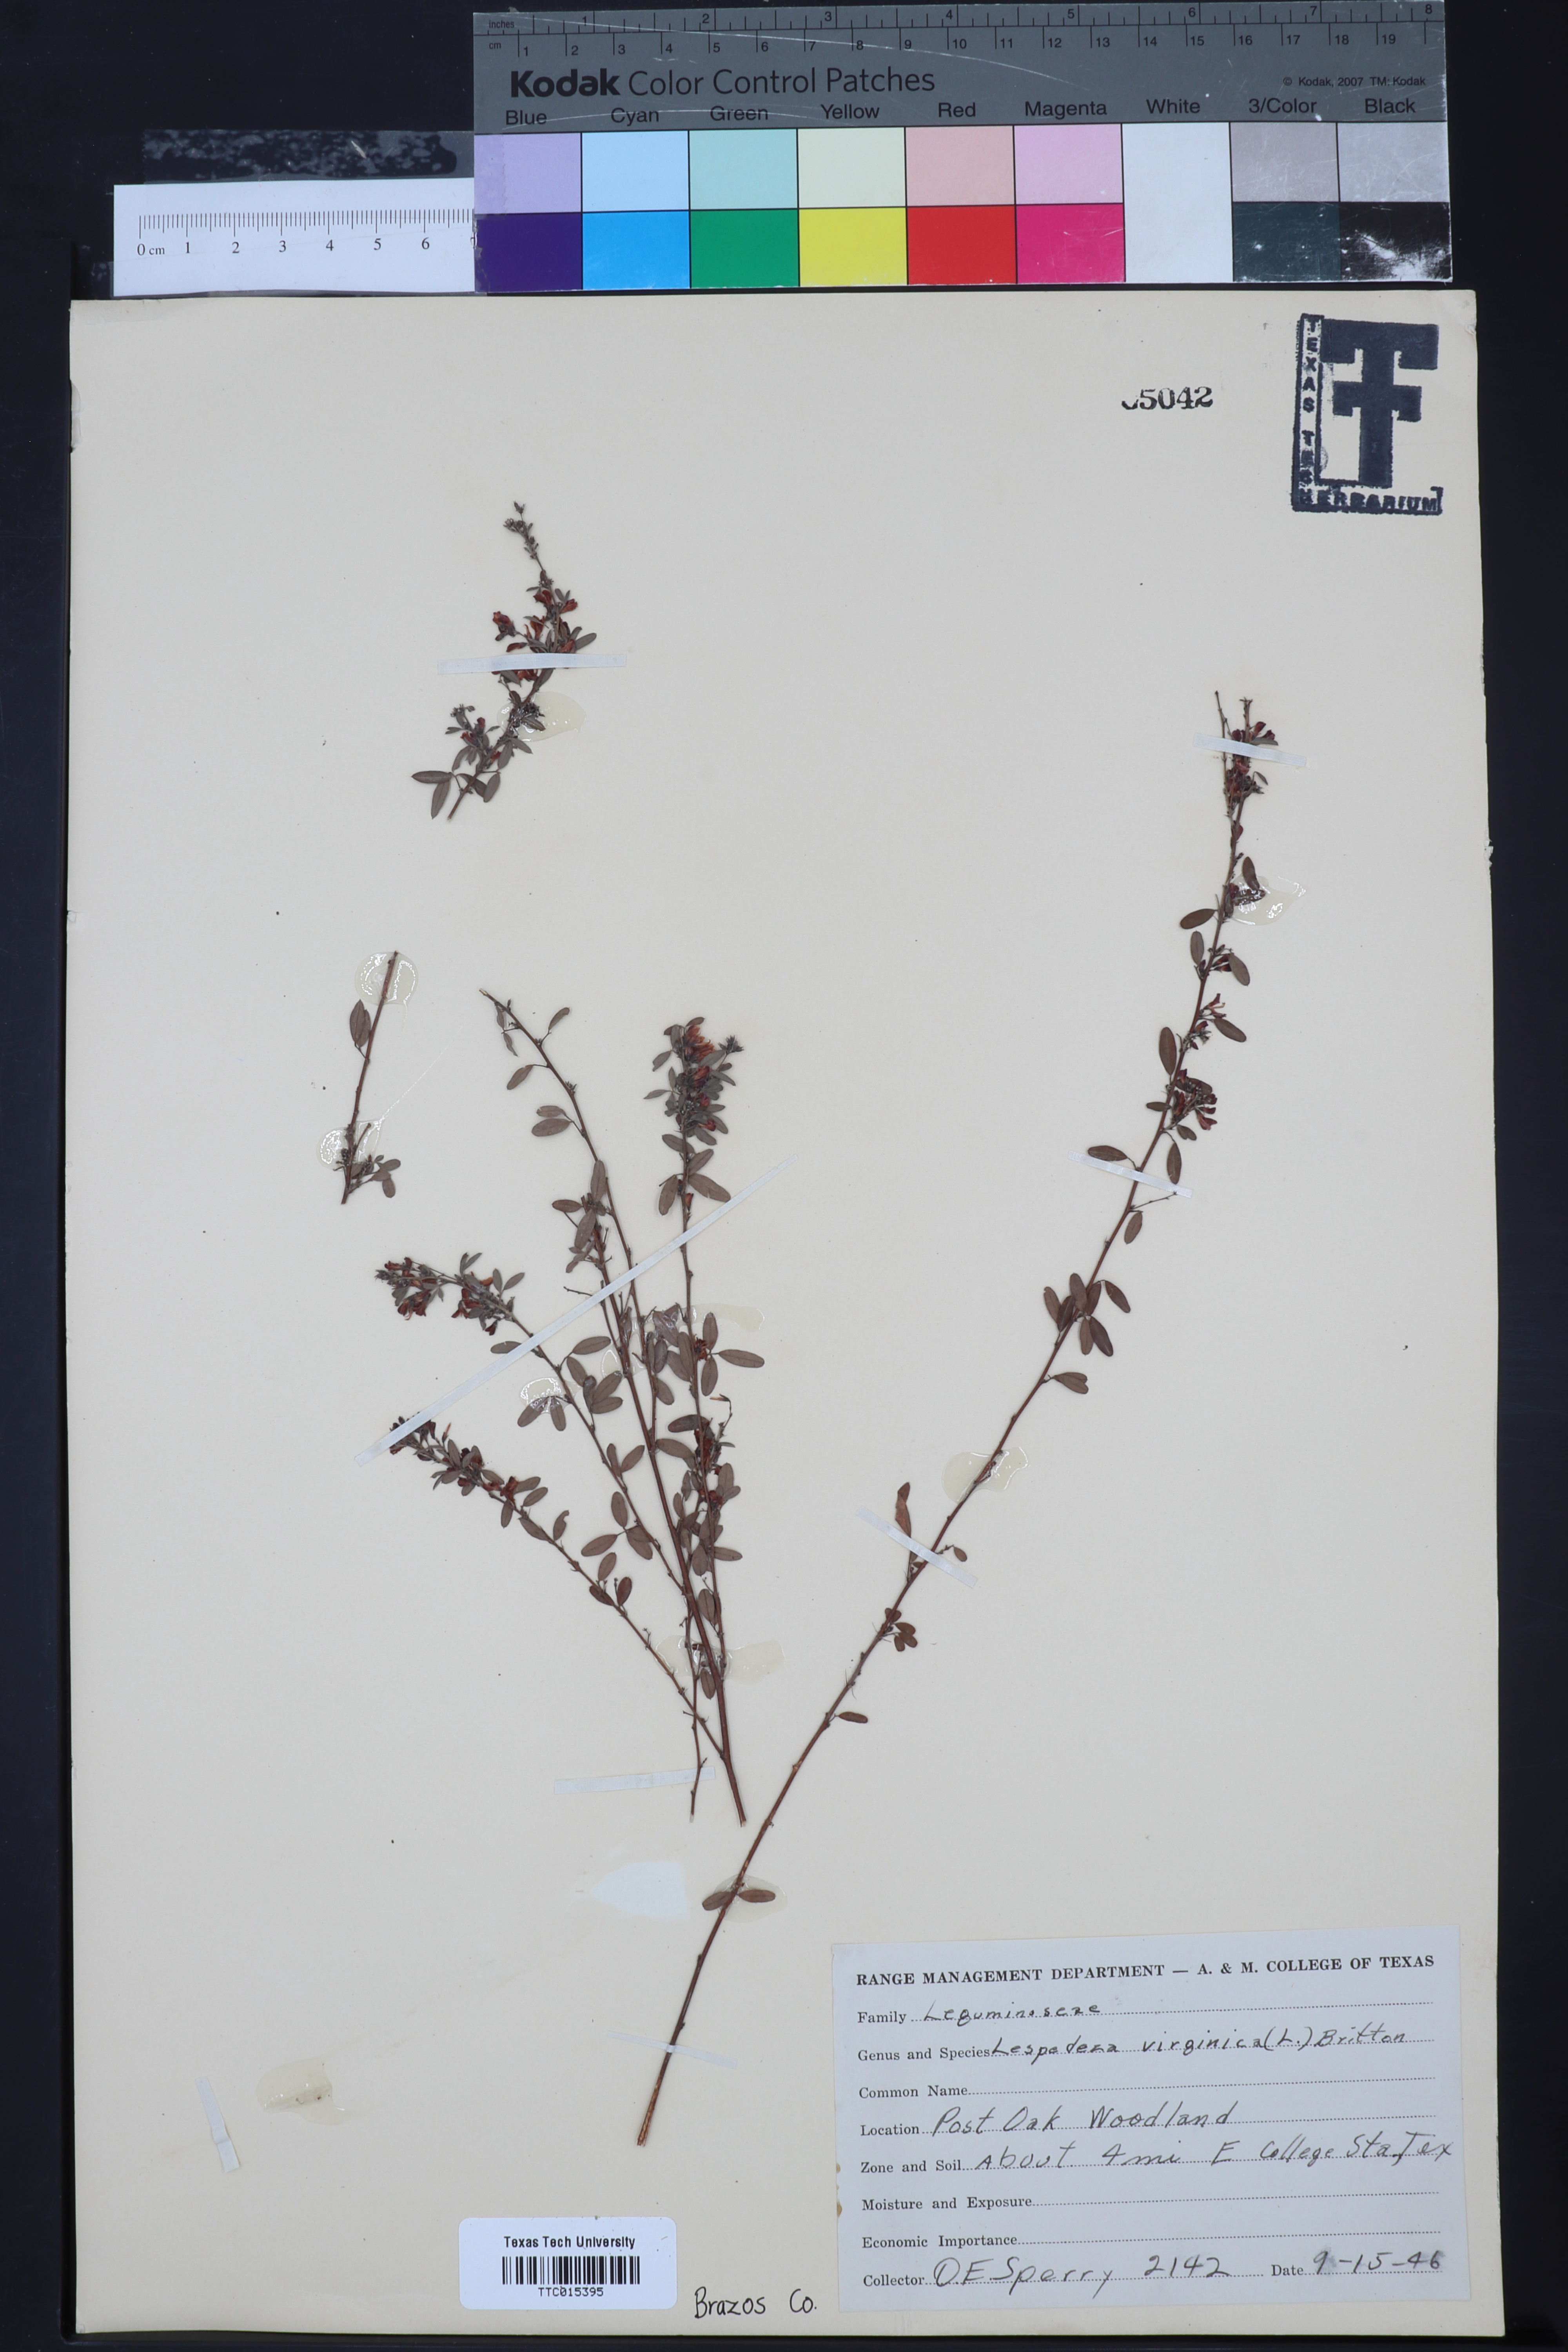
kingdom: Plantae
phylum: Tracheophyta
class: Magnoliopsida
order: Fabales
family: Fabaceae
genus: Lespedeza
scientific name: Lespedeza virginica
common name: Slender bush-clover
